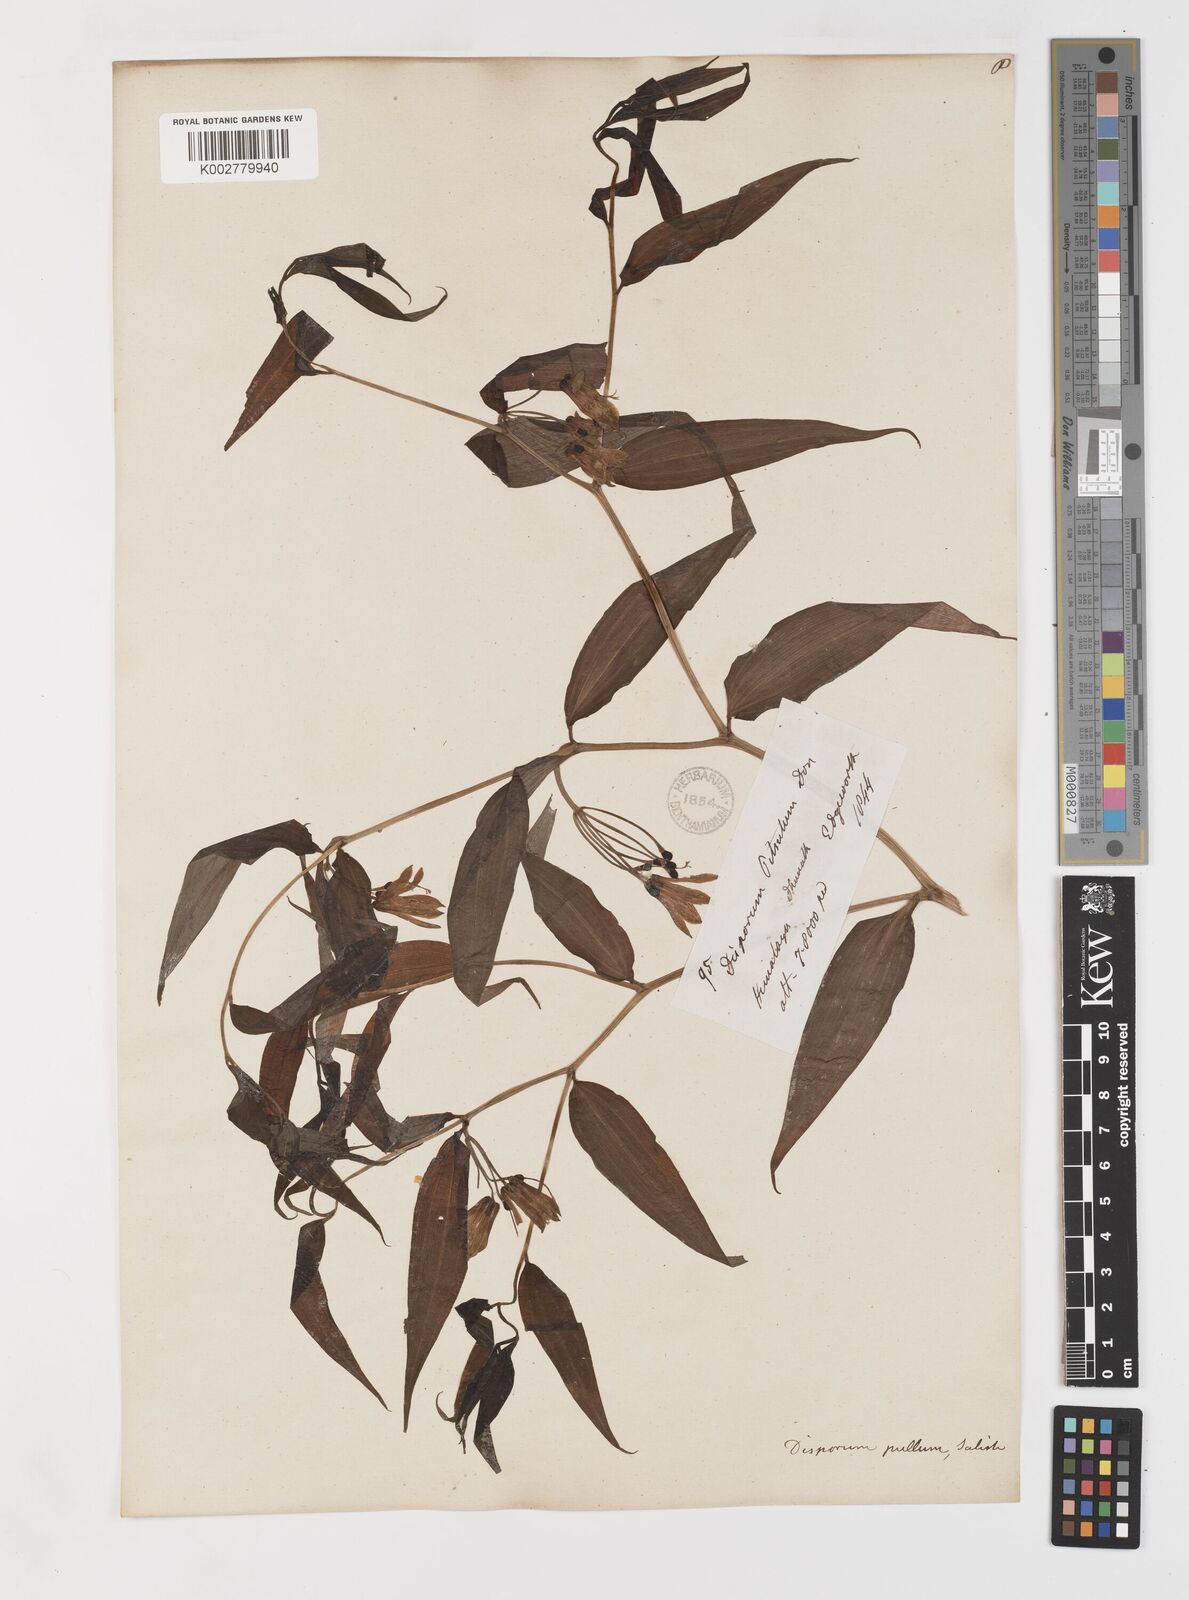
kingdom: Plantae
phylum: Tracheophyta
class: Liliopsida
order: Liliales
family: Colchicaceae
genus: Disporum
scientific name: Disporum cantoniense
